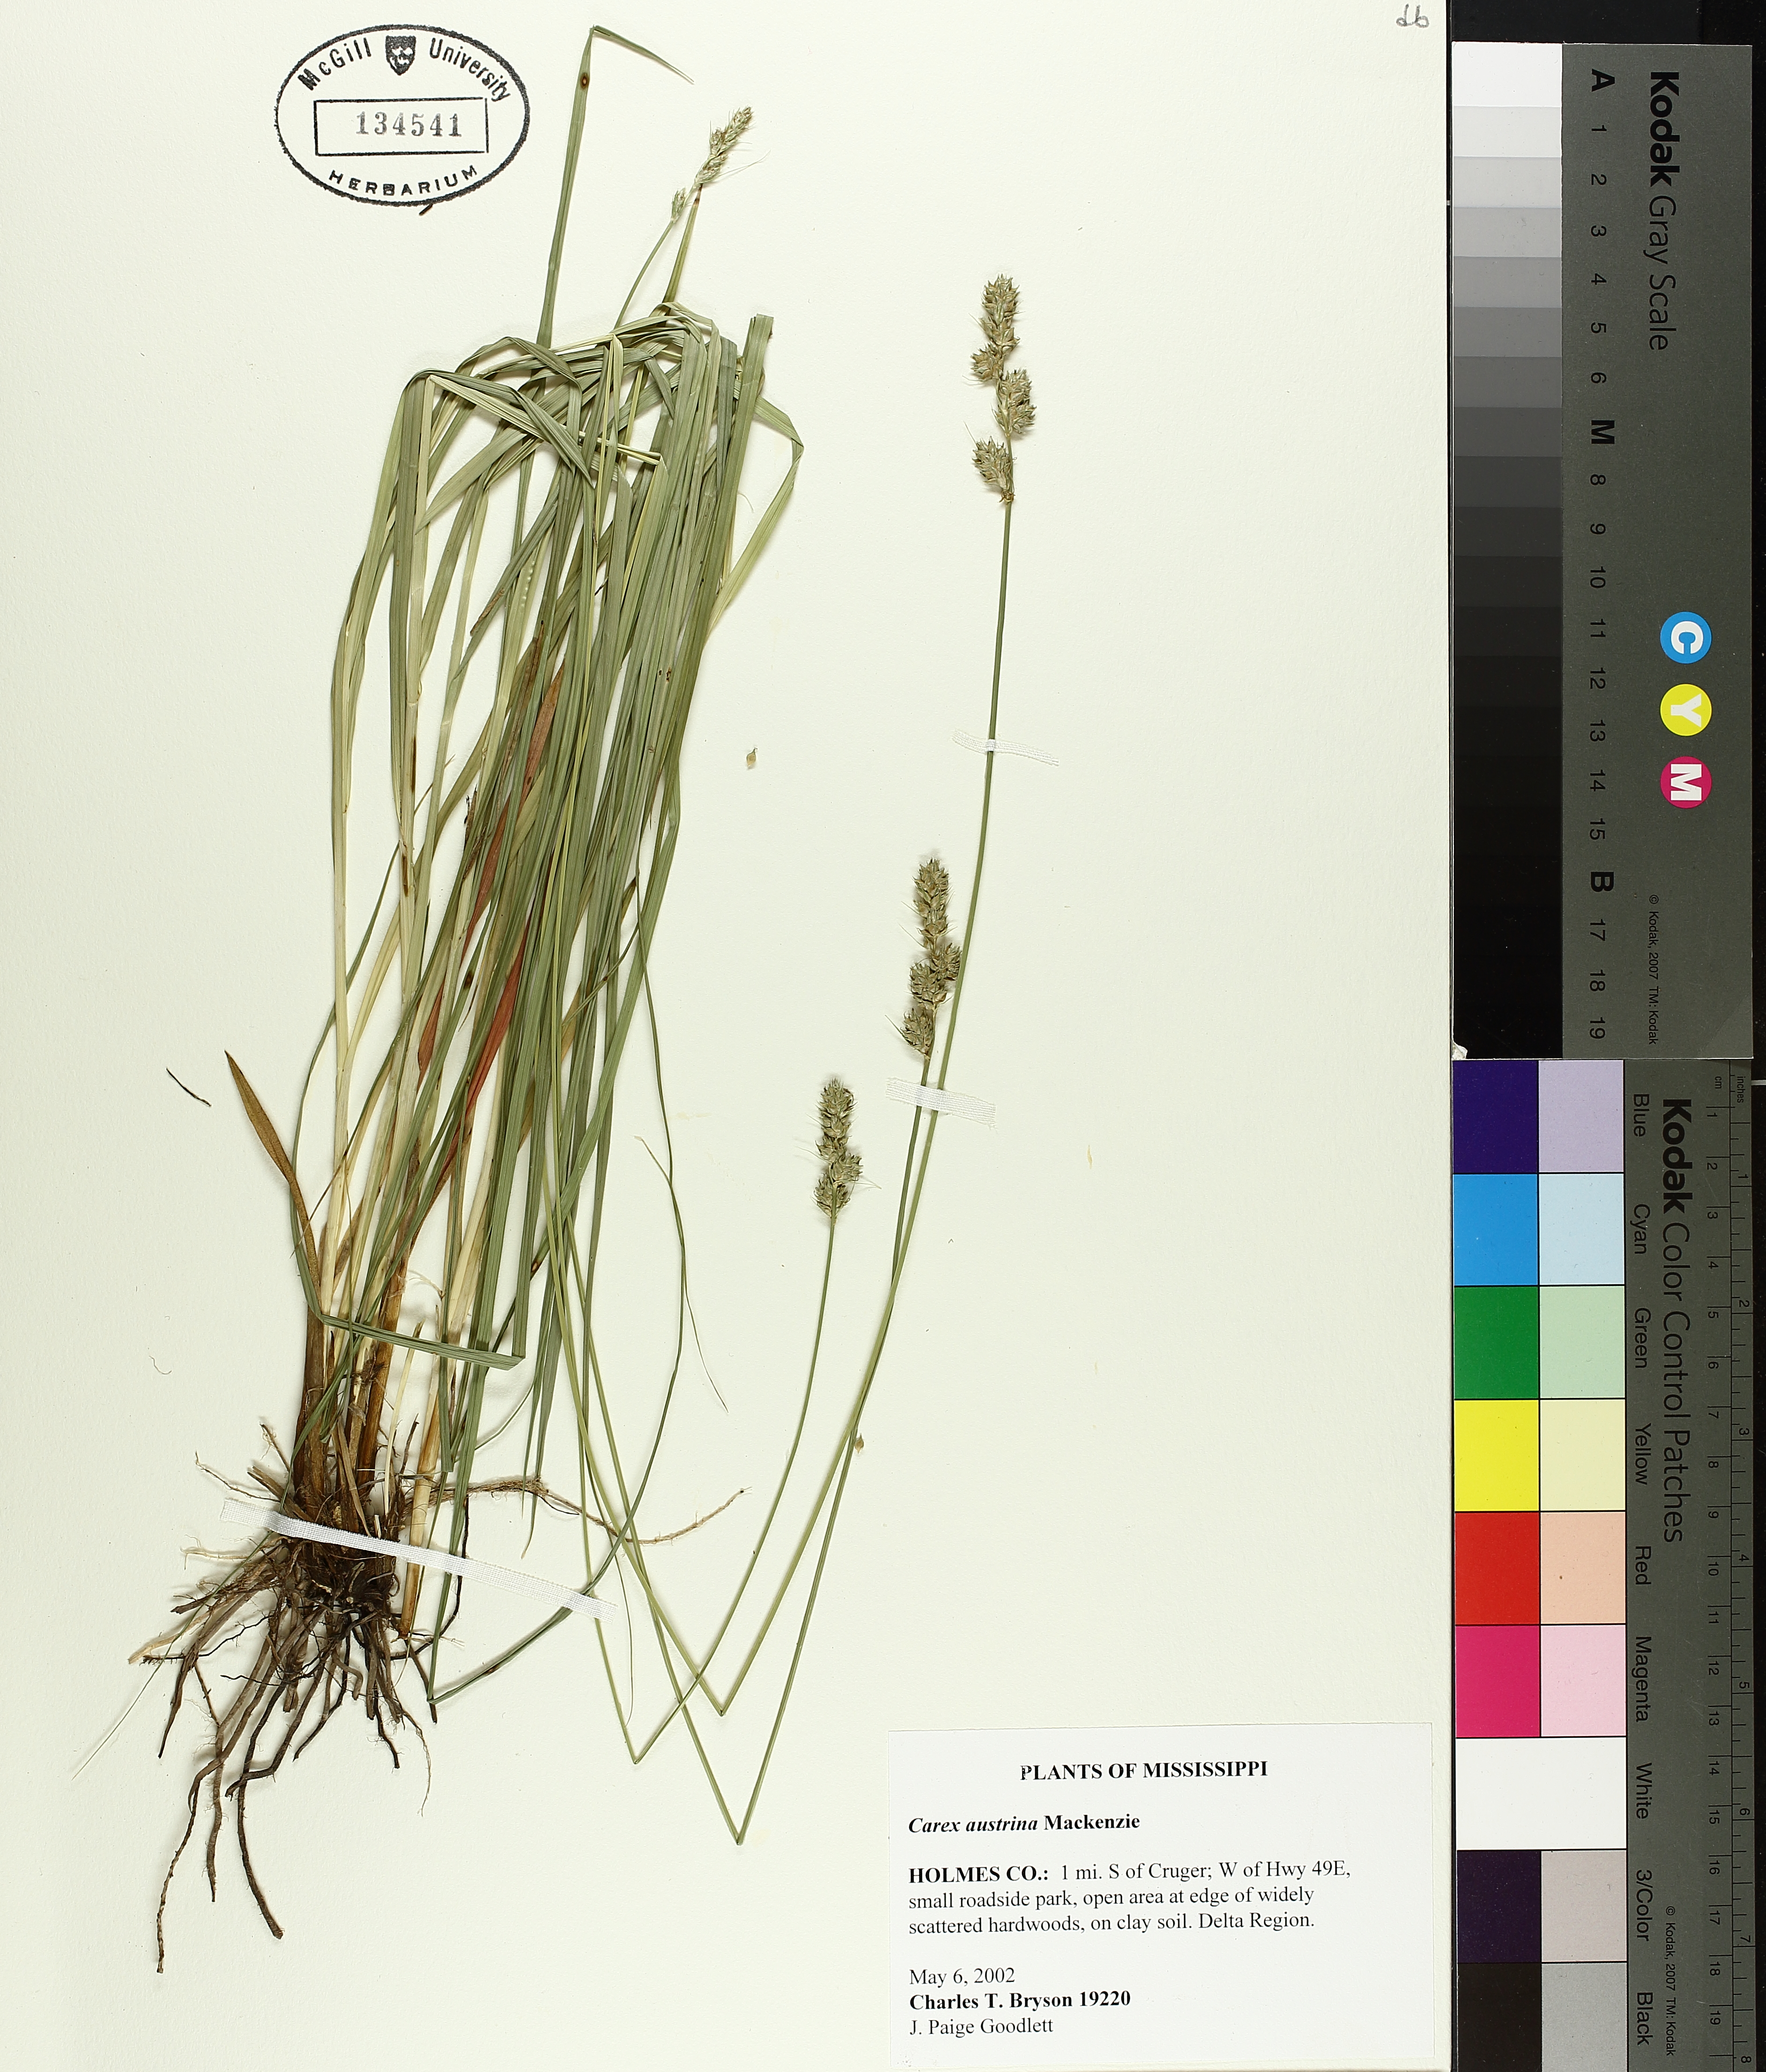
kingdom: Plantae
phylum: Tracheophyta
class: Liliopsida
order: Poales
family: Cyperaceae
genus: Carex
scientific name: Carex austrina
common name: Southern sedge
